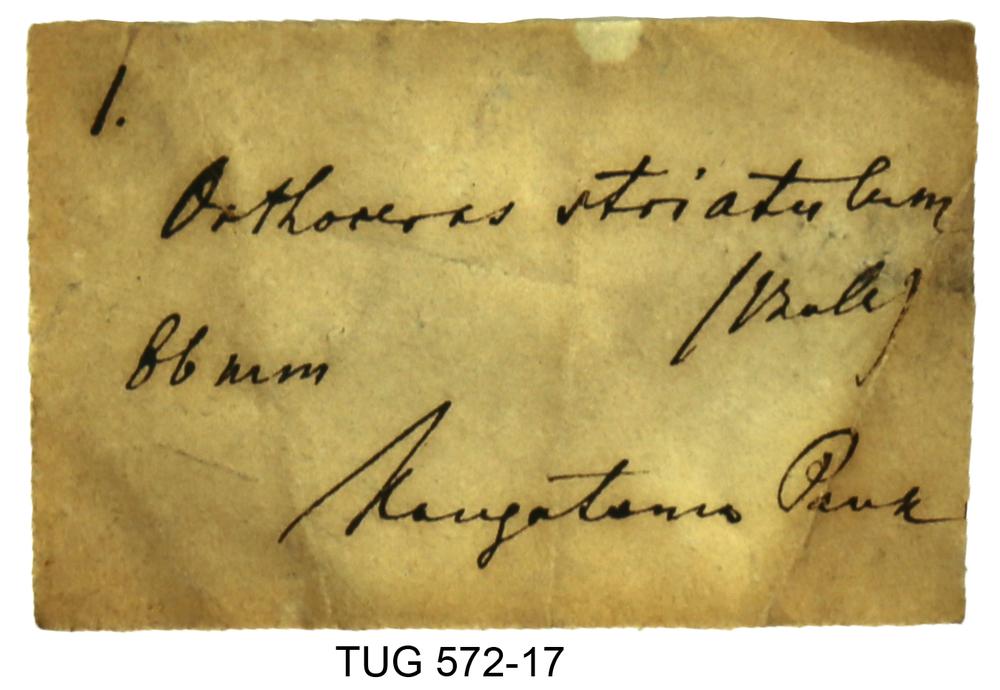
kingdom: Animalia
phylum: Mollusca
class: Cephalopoda
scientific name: Cephalopoda
